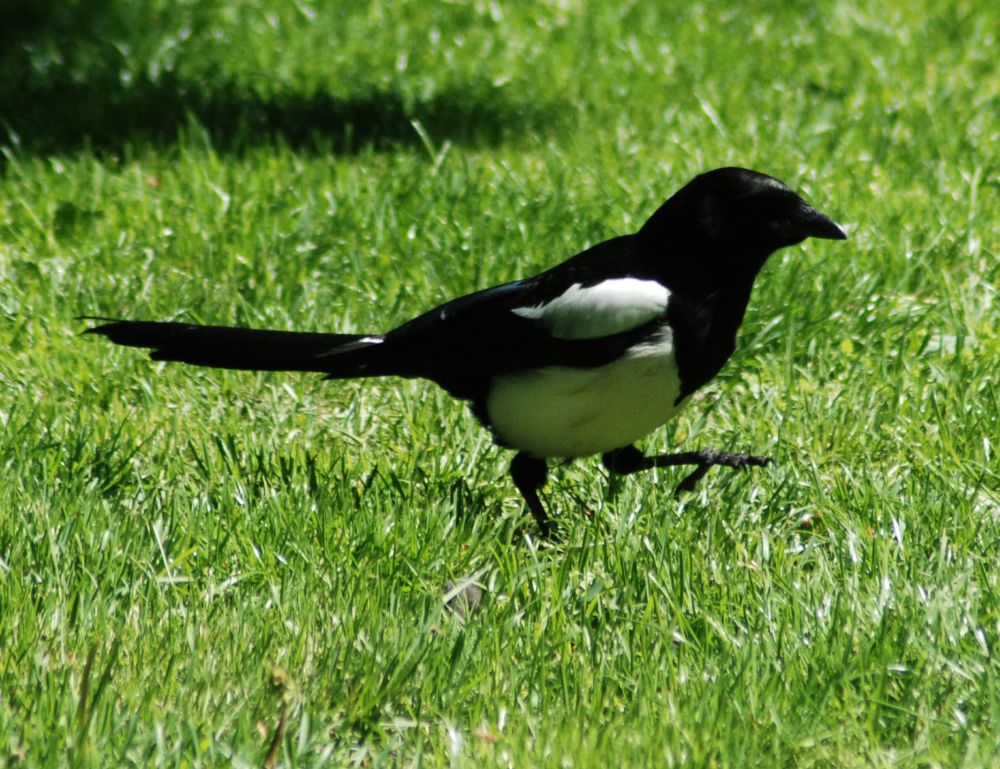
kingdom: Animalia
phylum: Chordata
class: Aves
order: Passeriformes
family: Corvidae
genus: Pica
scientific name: Pica pica
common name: Eurasian magpie
